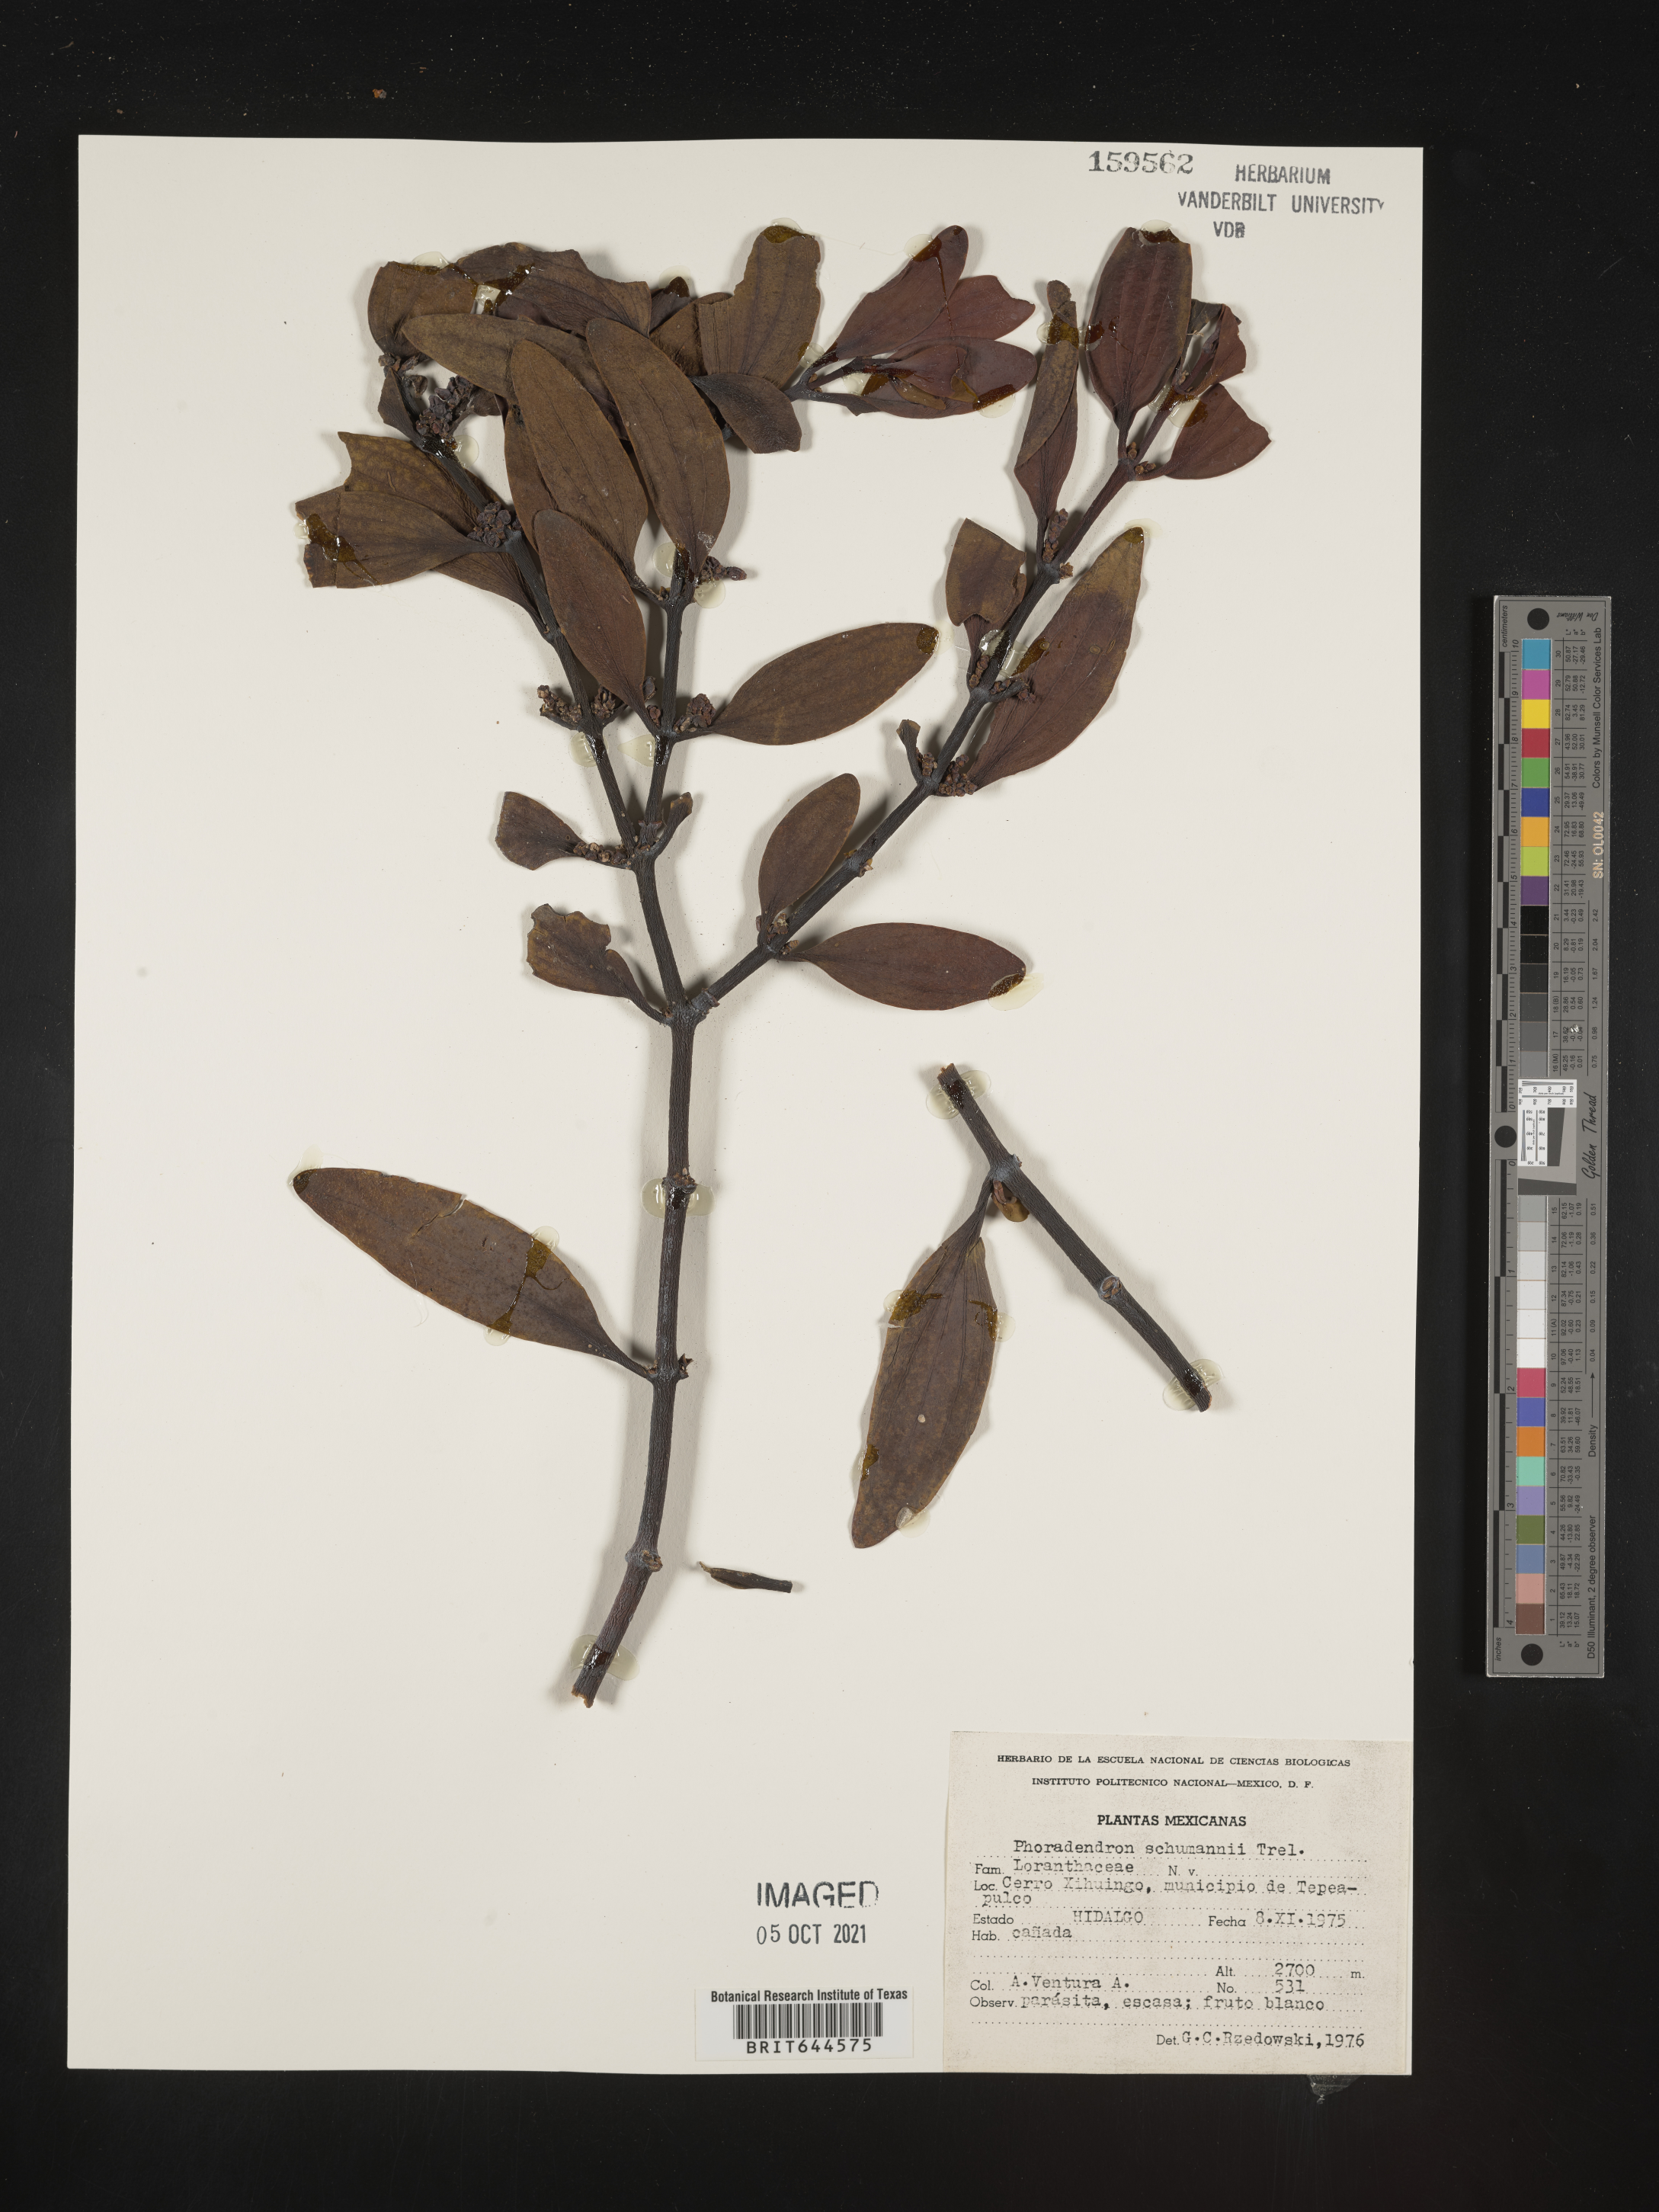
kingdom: Plantae
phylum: Tracheophyta
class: Magnoliopsida
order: Santalales
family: Viscaceae
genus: Phoradendron
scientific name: Phoradendron
